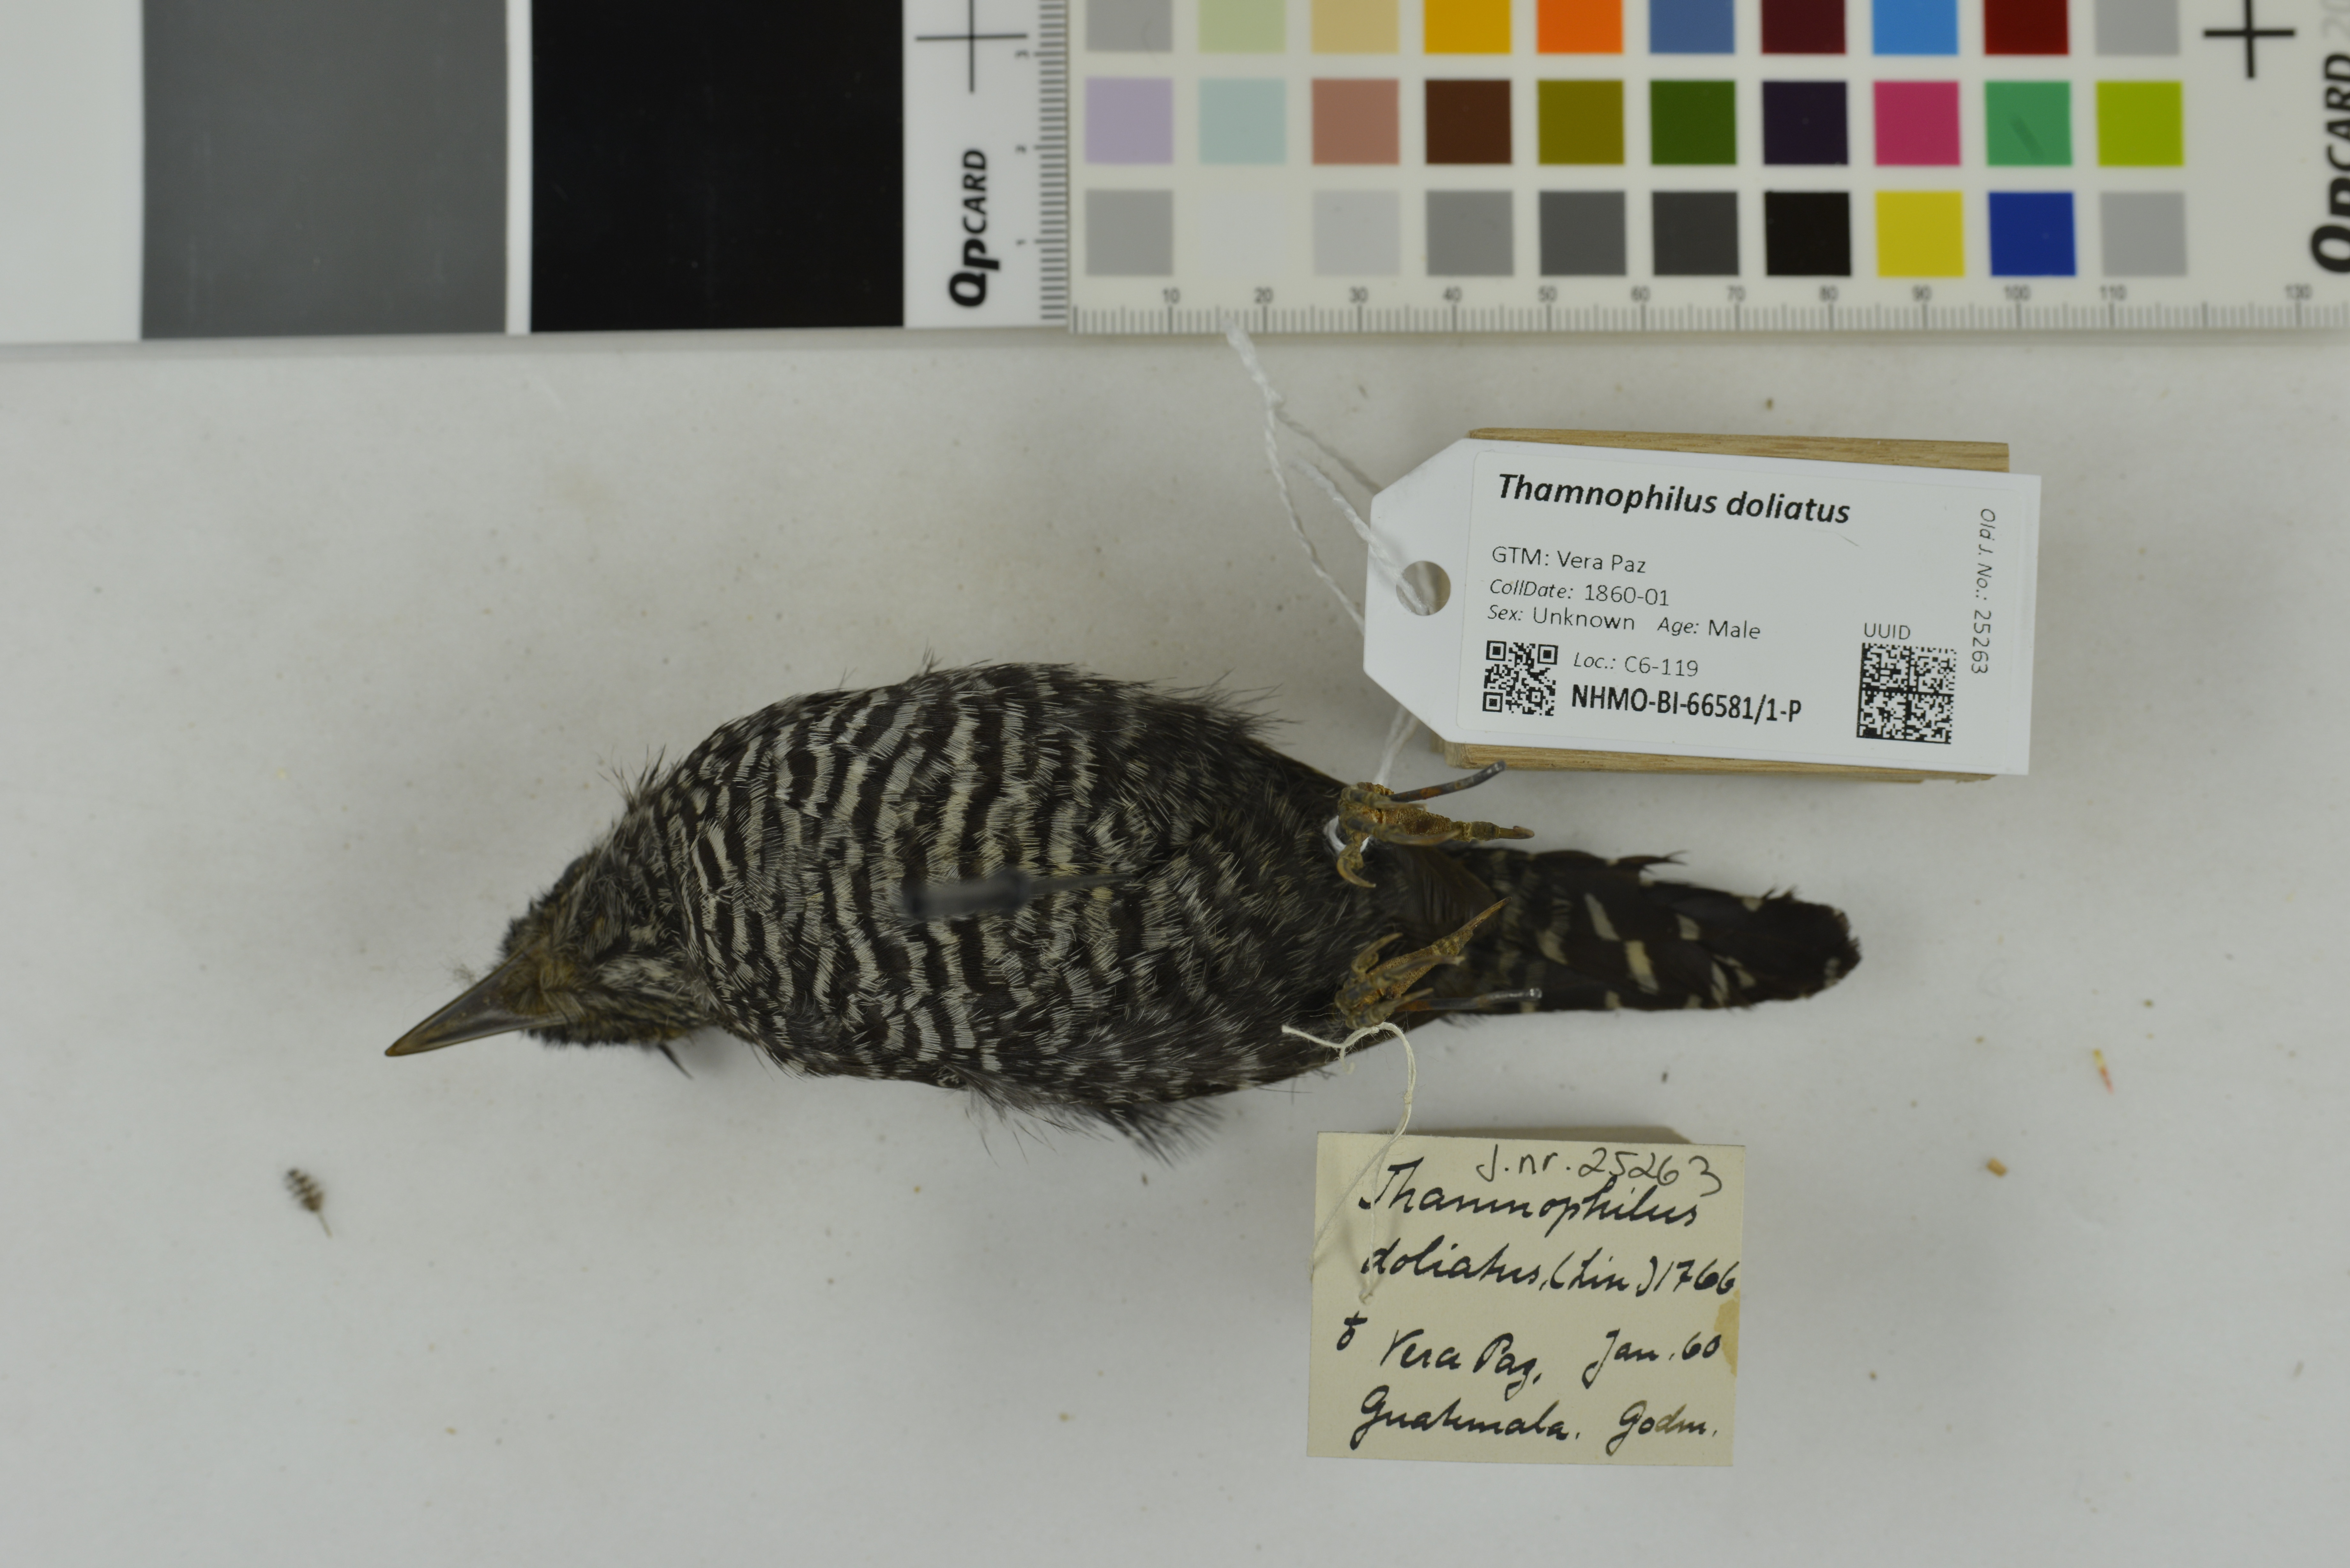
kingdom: Animalia
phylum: Chordata
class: Aves
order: Passeriformes
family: Thamnophilidae
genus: Thamnophilus
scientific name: Thamnophilus doliatus
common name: Barred antshrike
